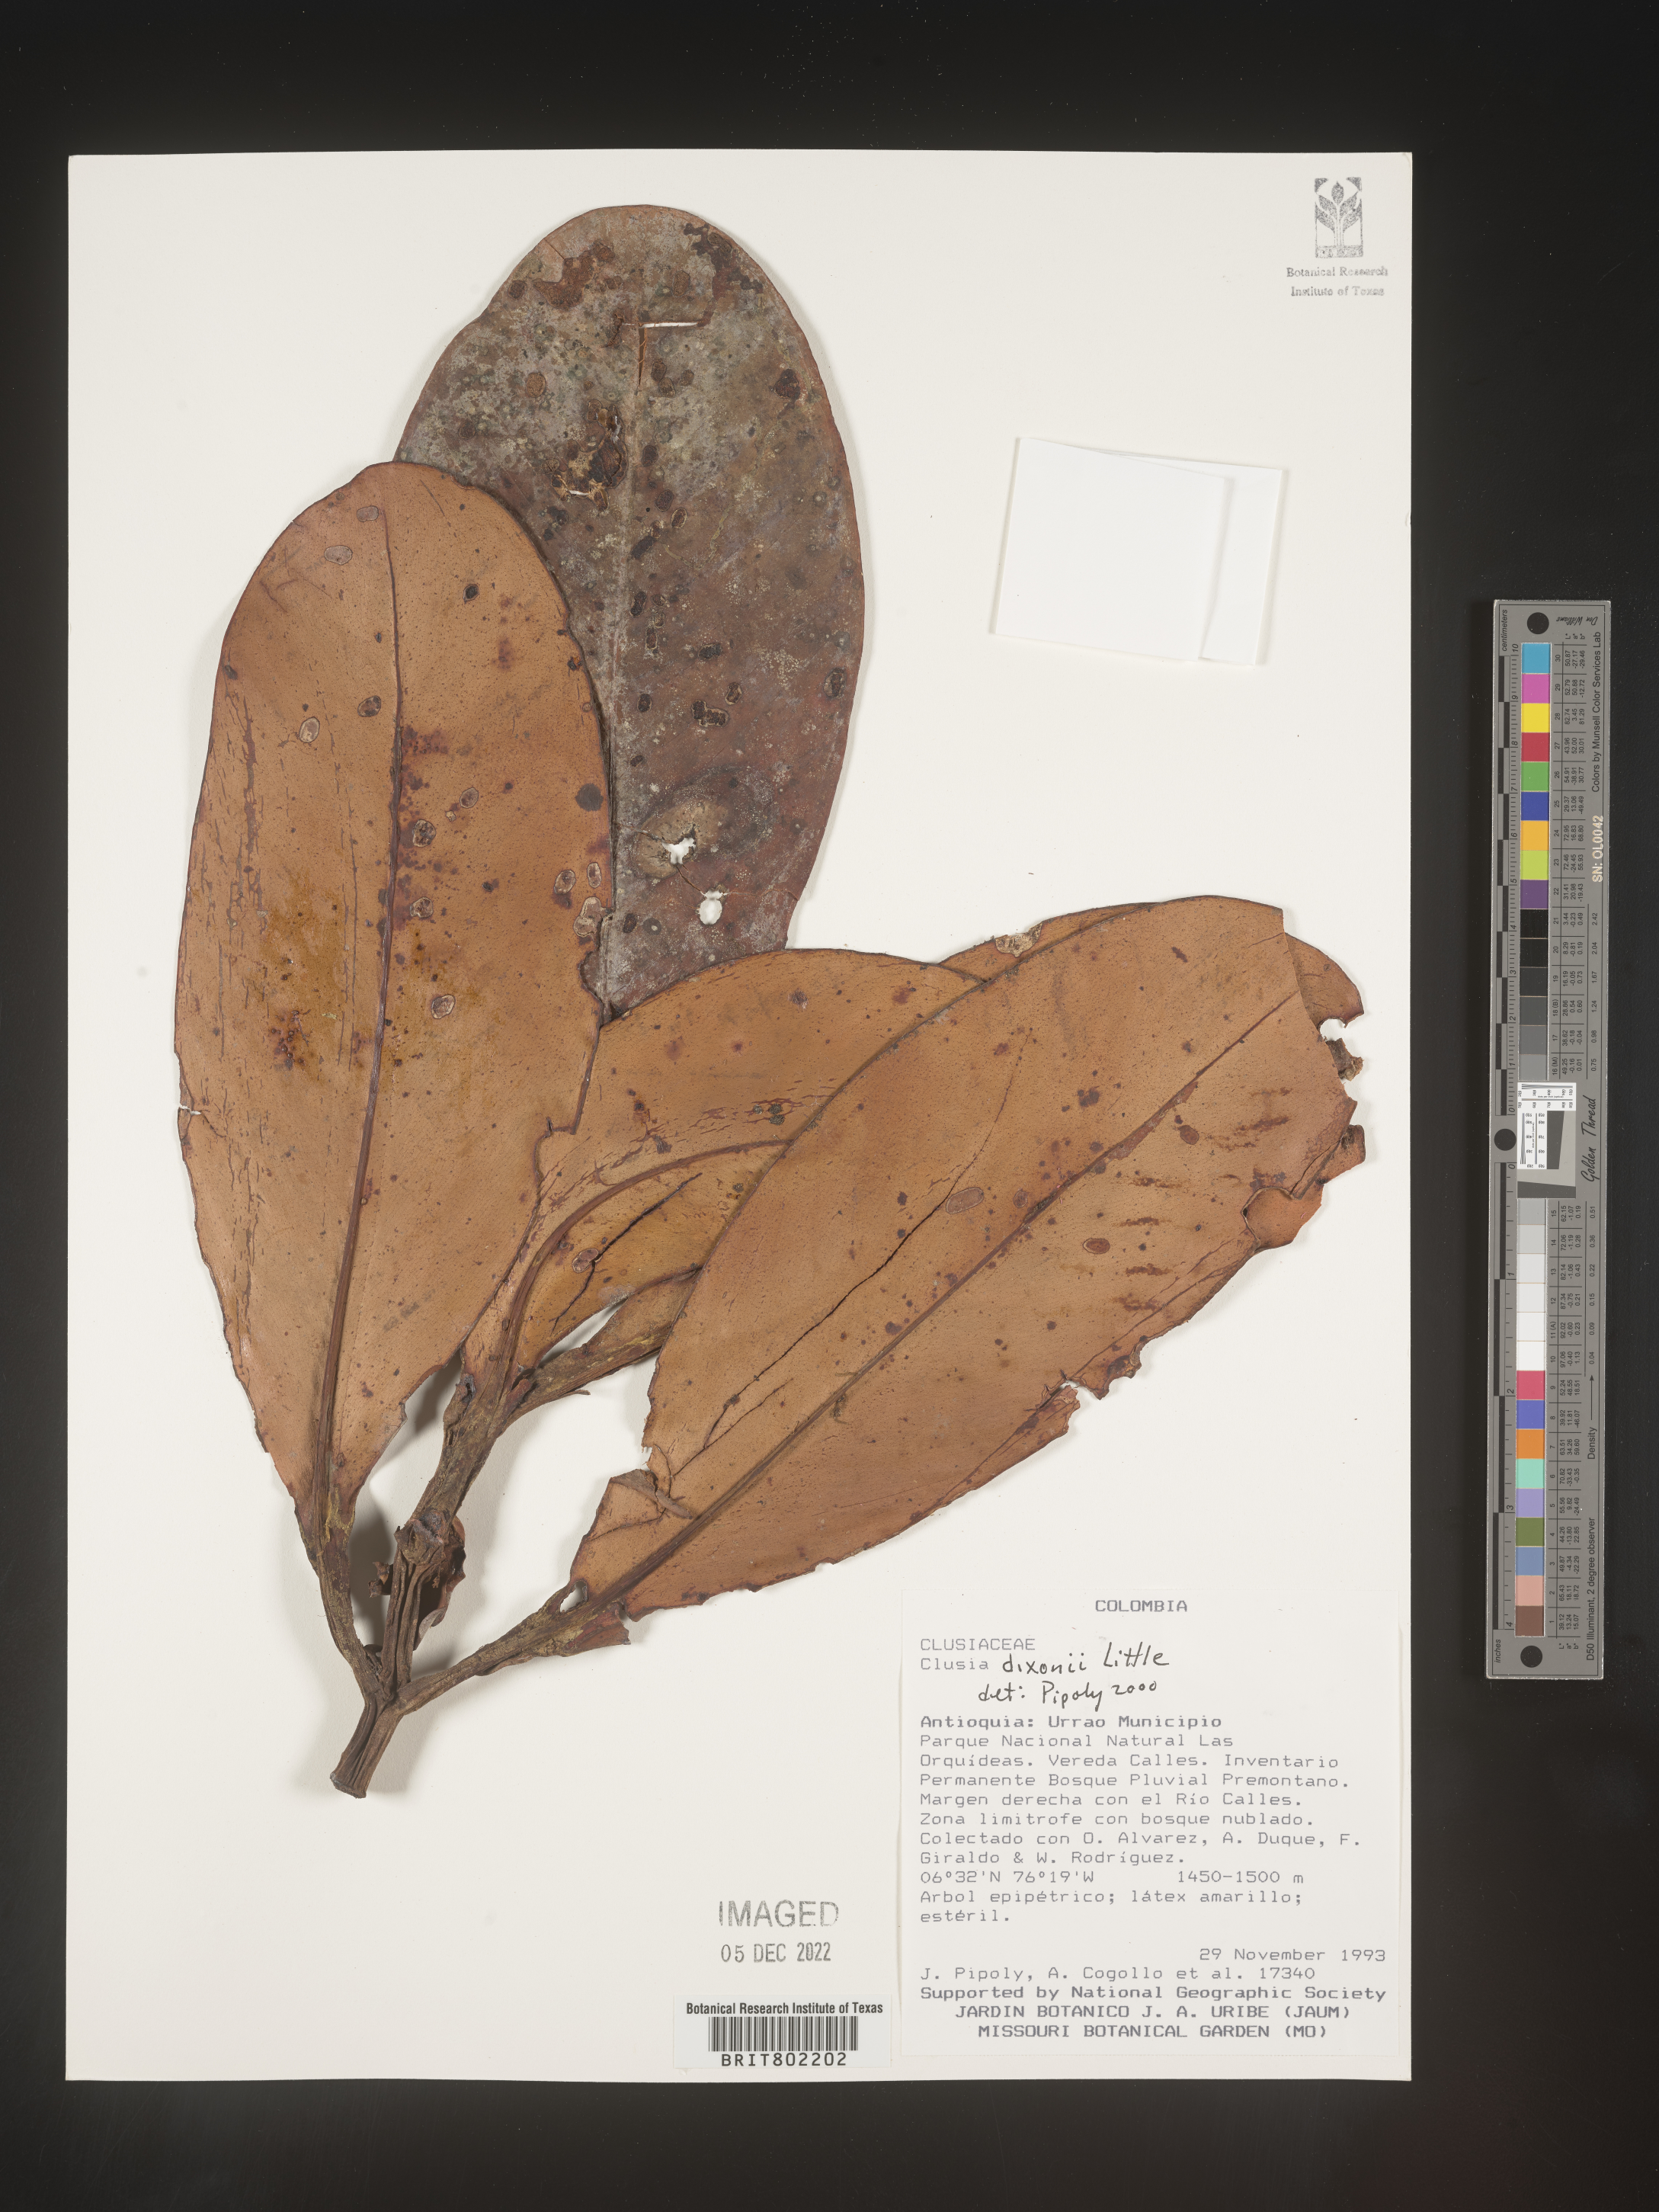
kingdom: Plantae
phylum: Tracheophyta
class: Magnoliopsida
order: Malpighiales
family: Clusiaceae
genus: Clusia
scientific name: Clusia
